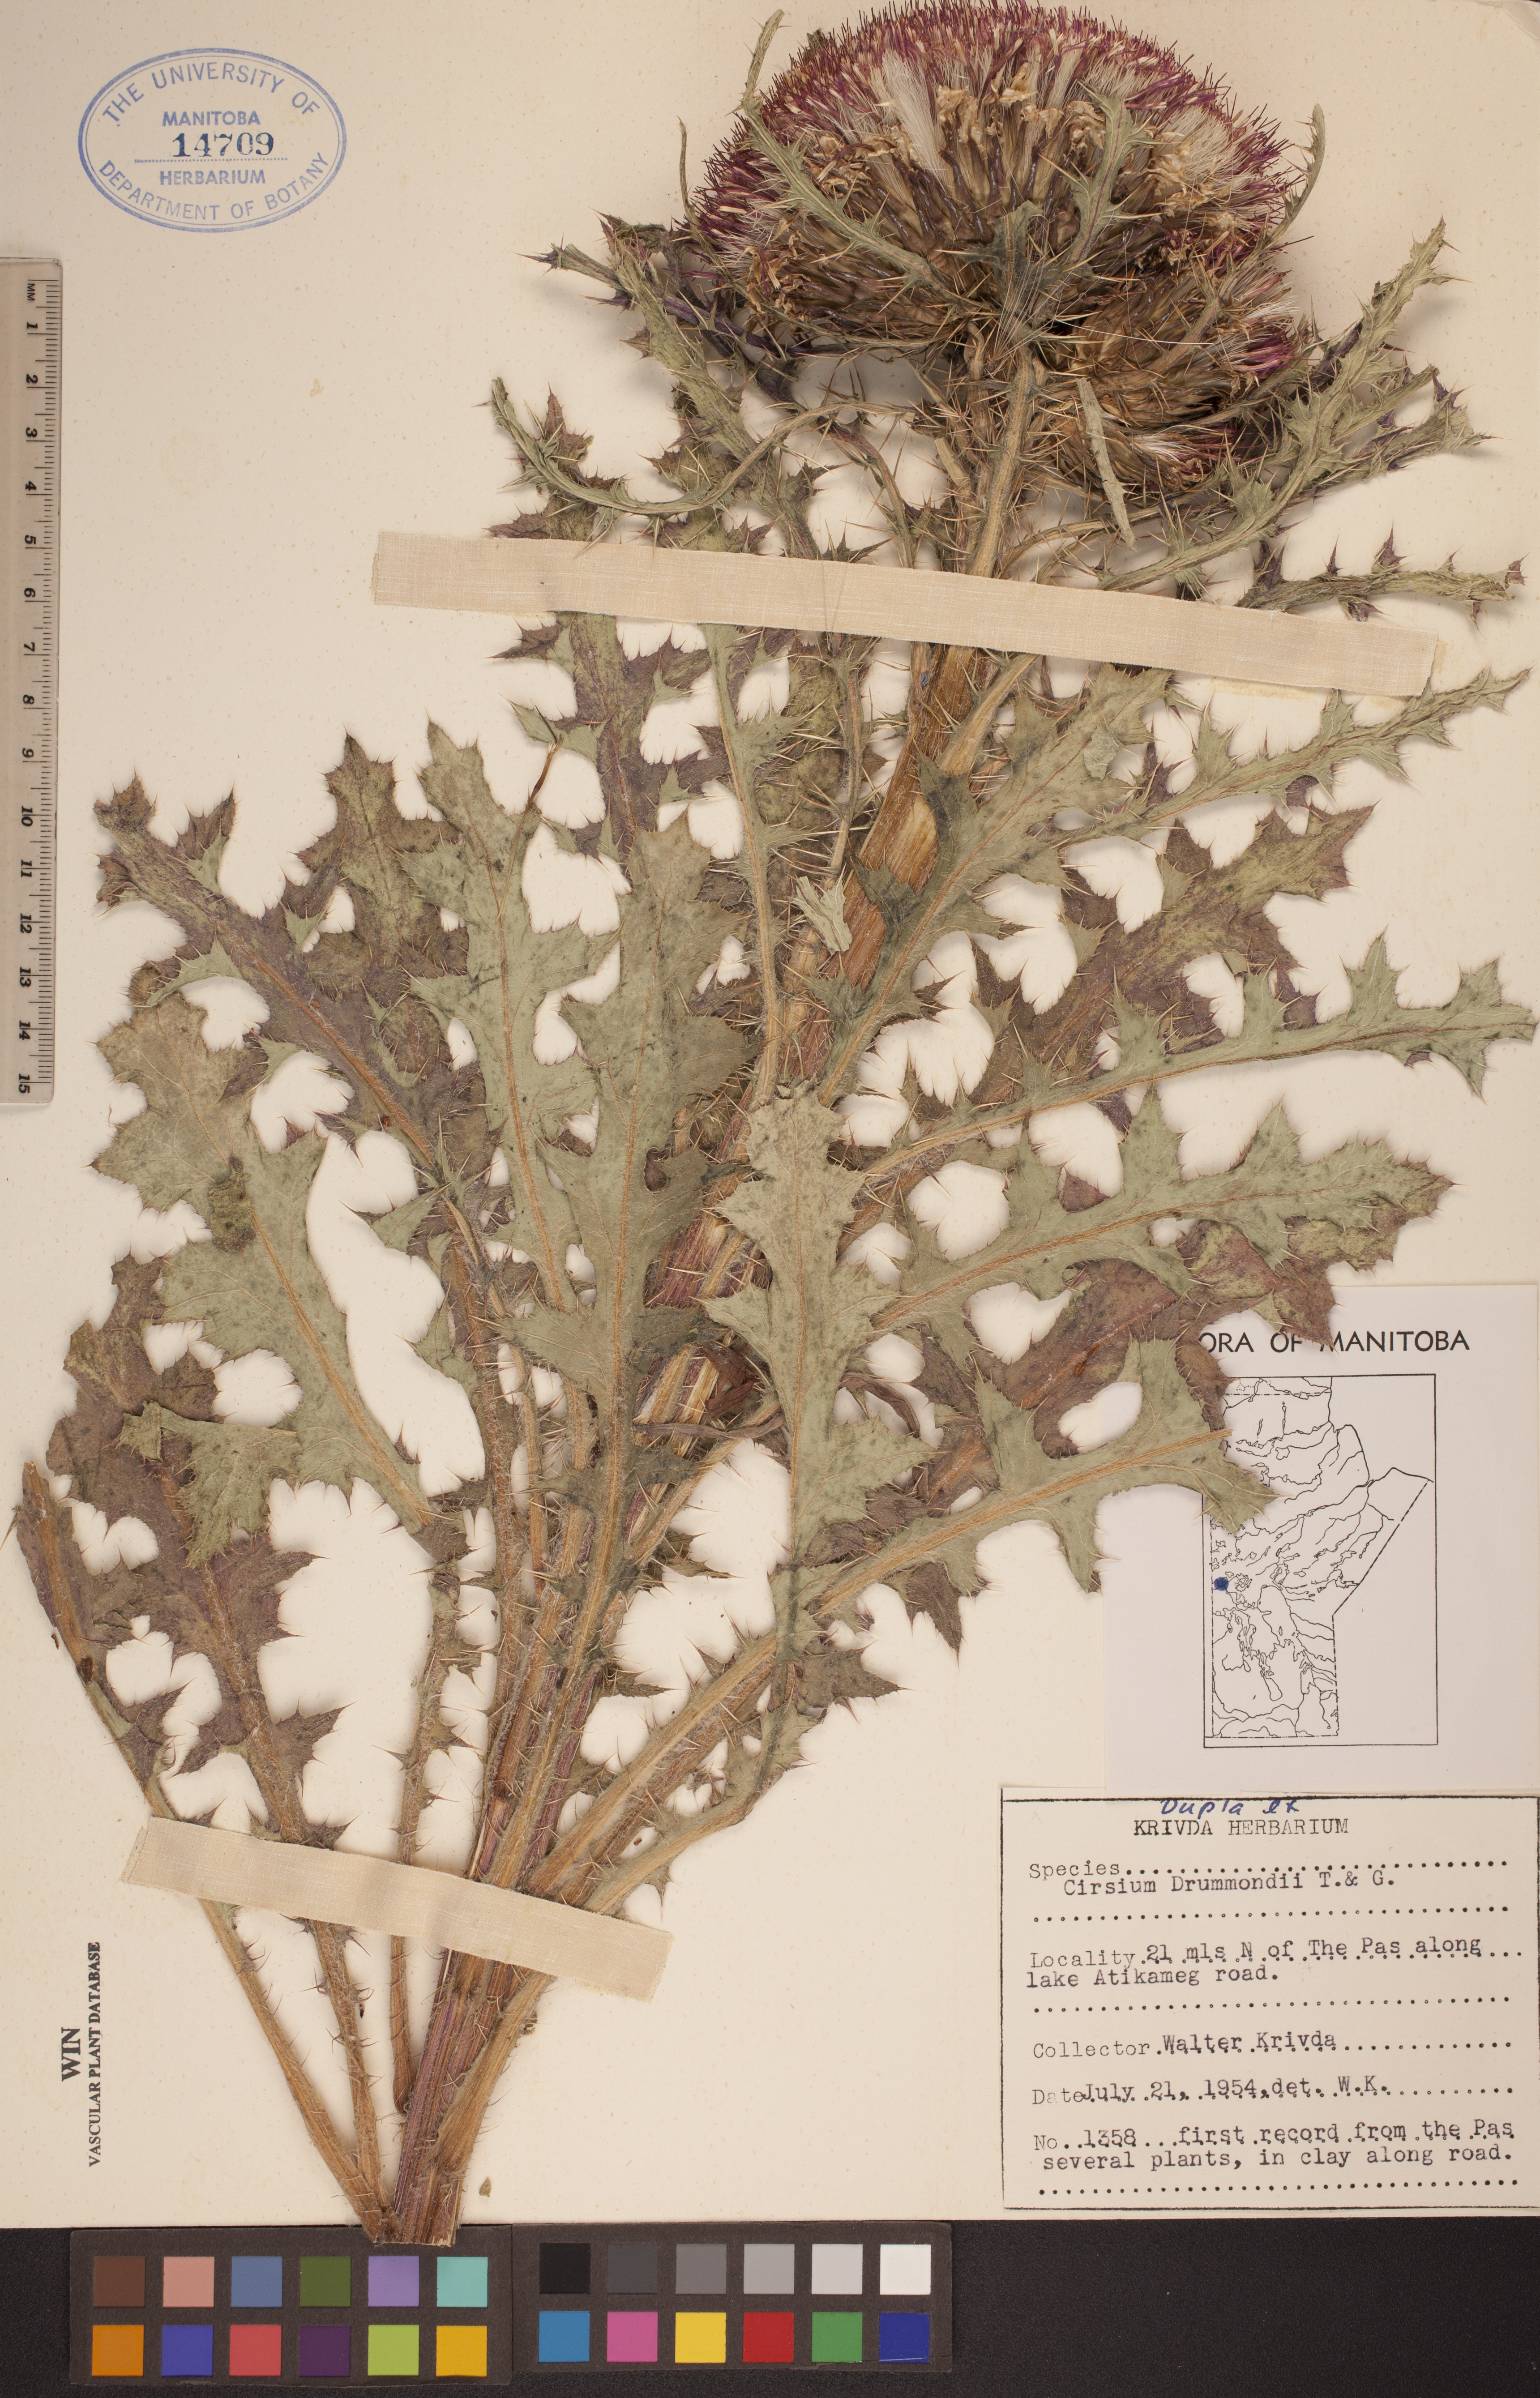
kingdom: Plantae
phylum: Tracheophyta
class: Magnoliopsida
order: Asterales
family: Asteraceae
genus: Cirsium
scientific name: Cirsium drummondii
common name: Drummond's thistle
